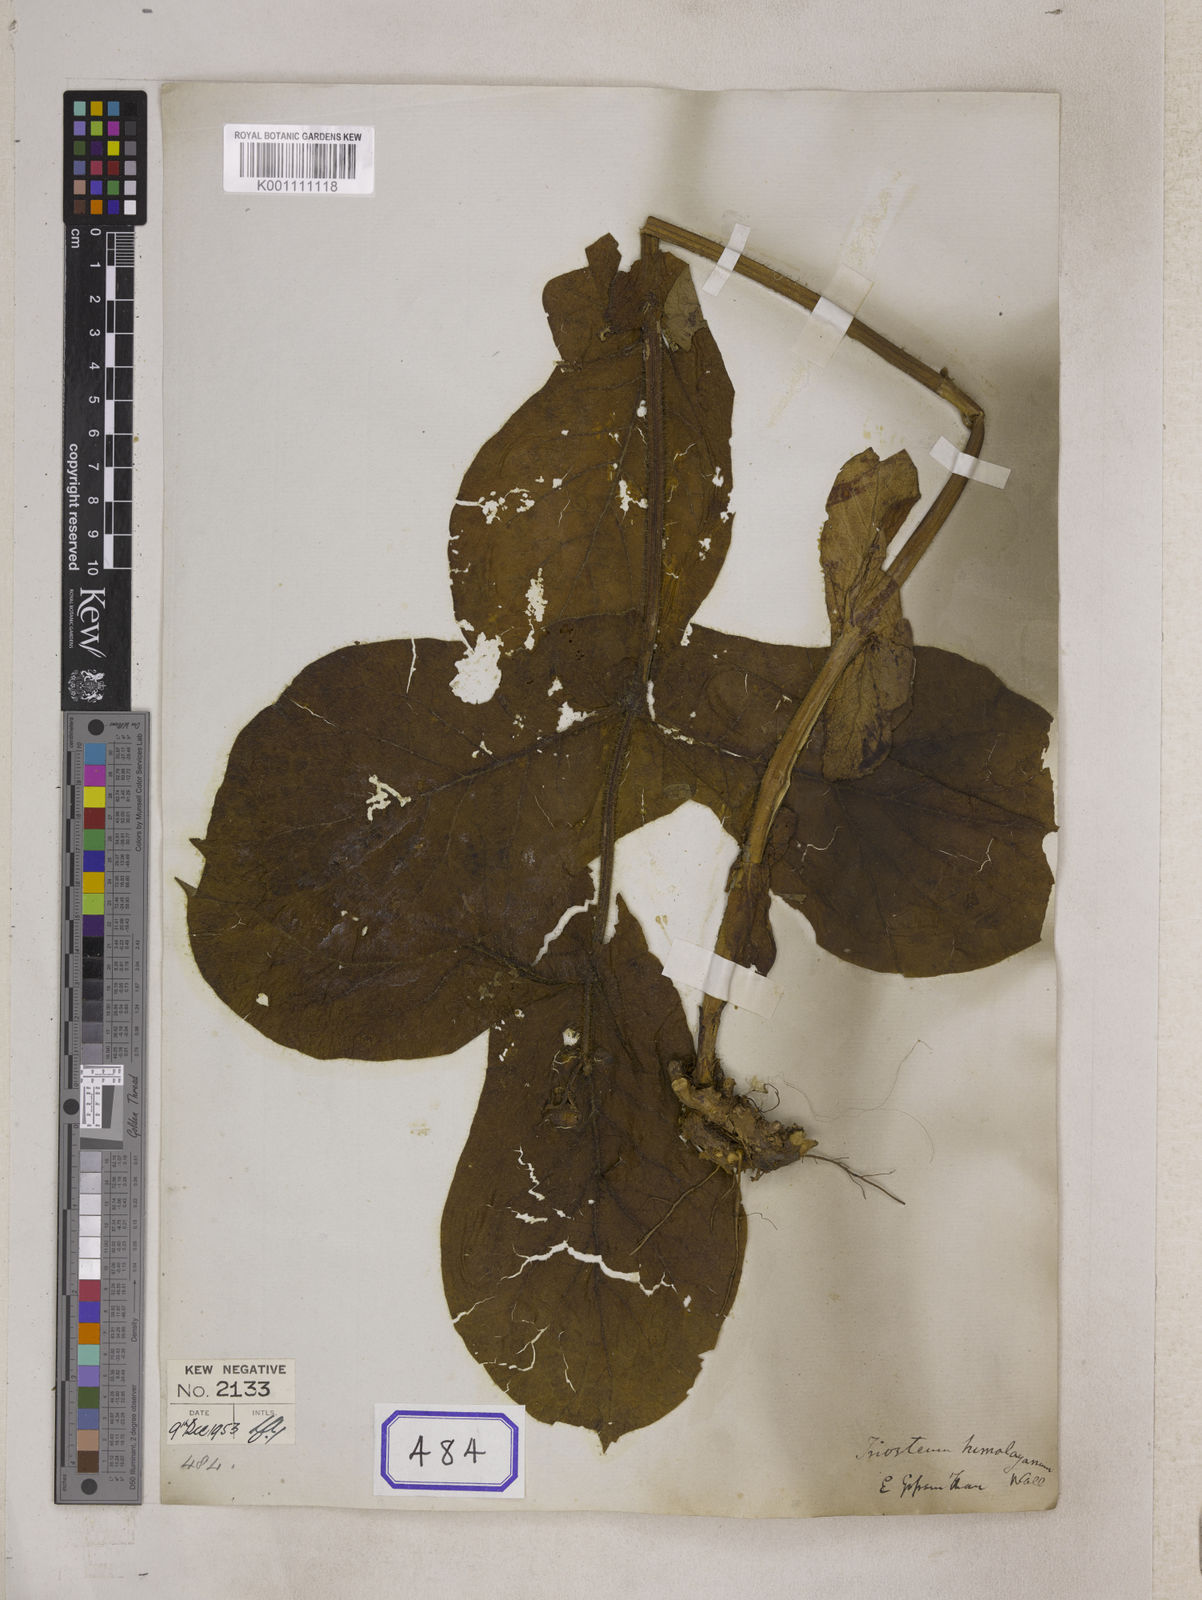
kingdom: Plantae
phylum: Tracheophyta
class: Magnoliopsida
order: Dipsacales
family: Caprifoliaceae
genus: Triosteum
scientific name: Triosteum himalayanum
